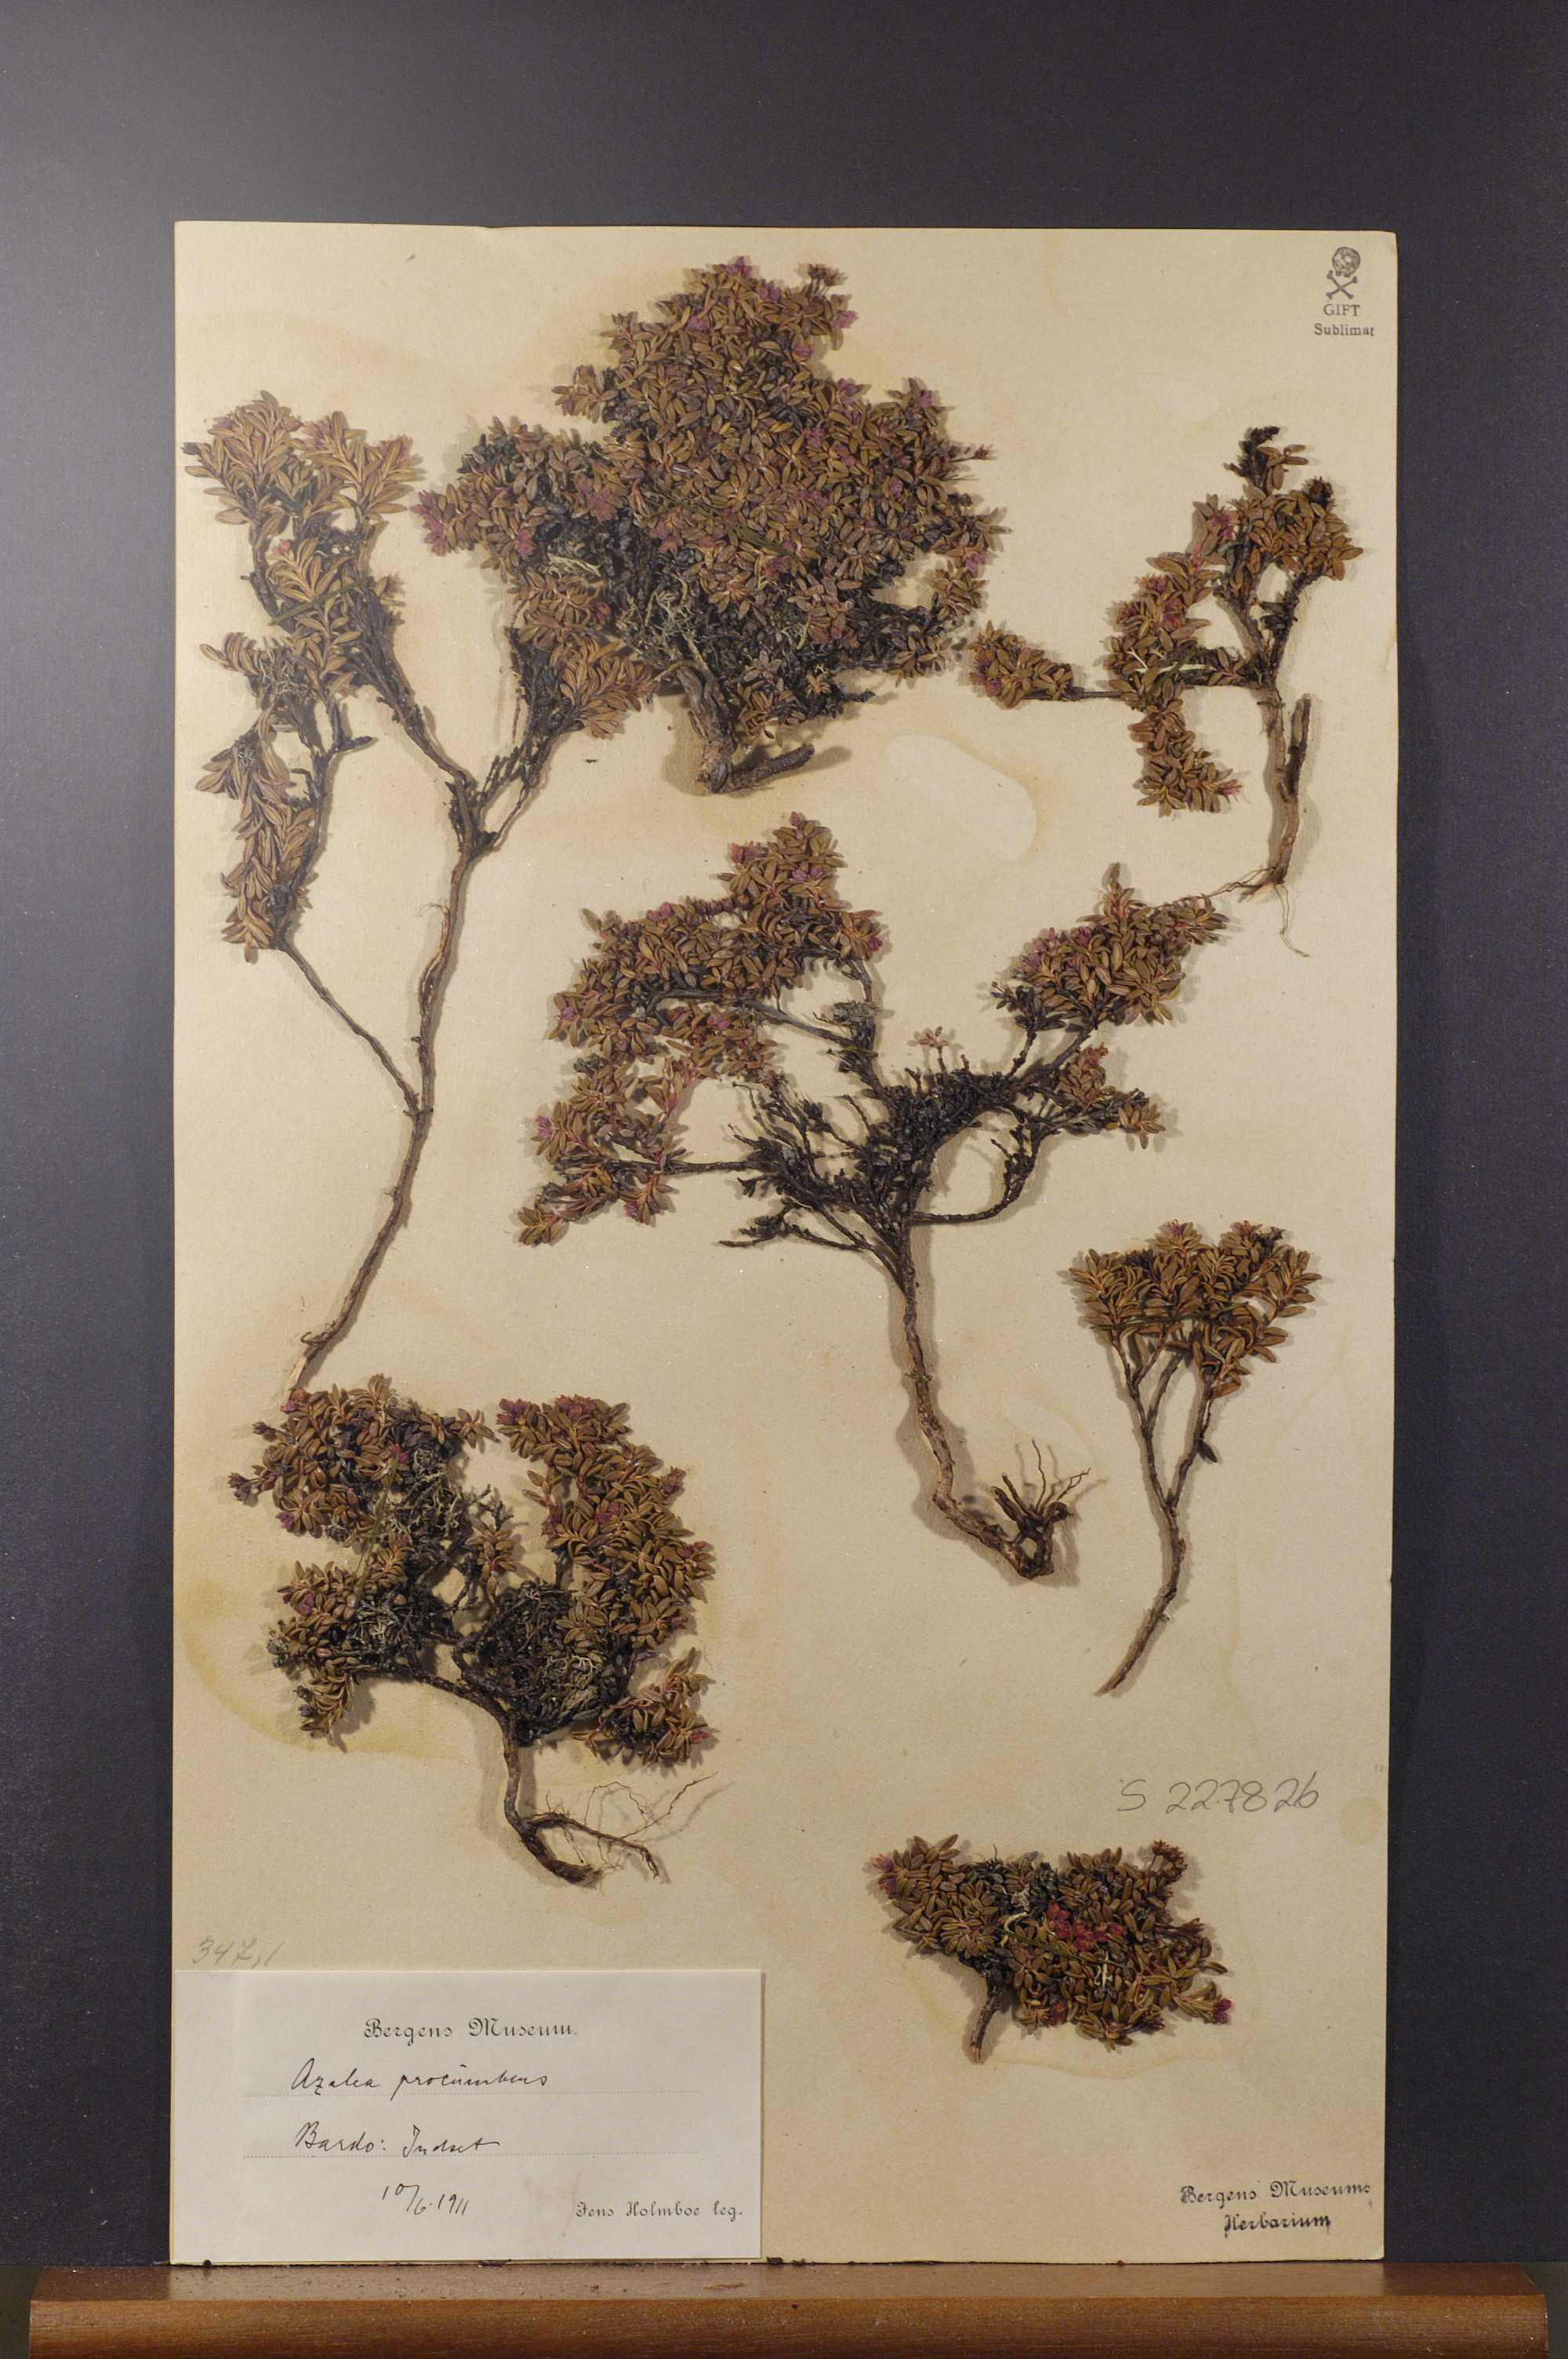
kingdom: Plantae
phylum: Tracheophyta
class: Magnoliopsida
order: Ericales
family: Ericaceae
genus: Kalmia
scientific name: Kalmia procumbens
